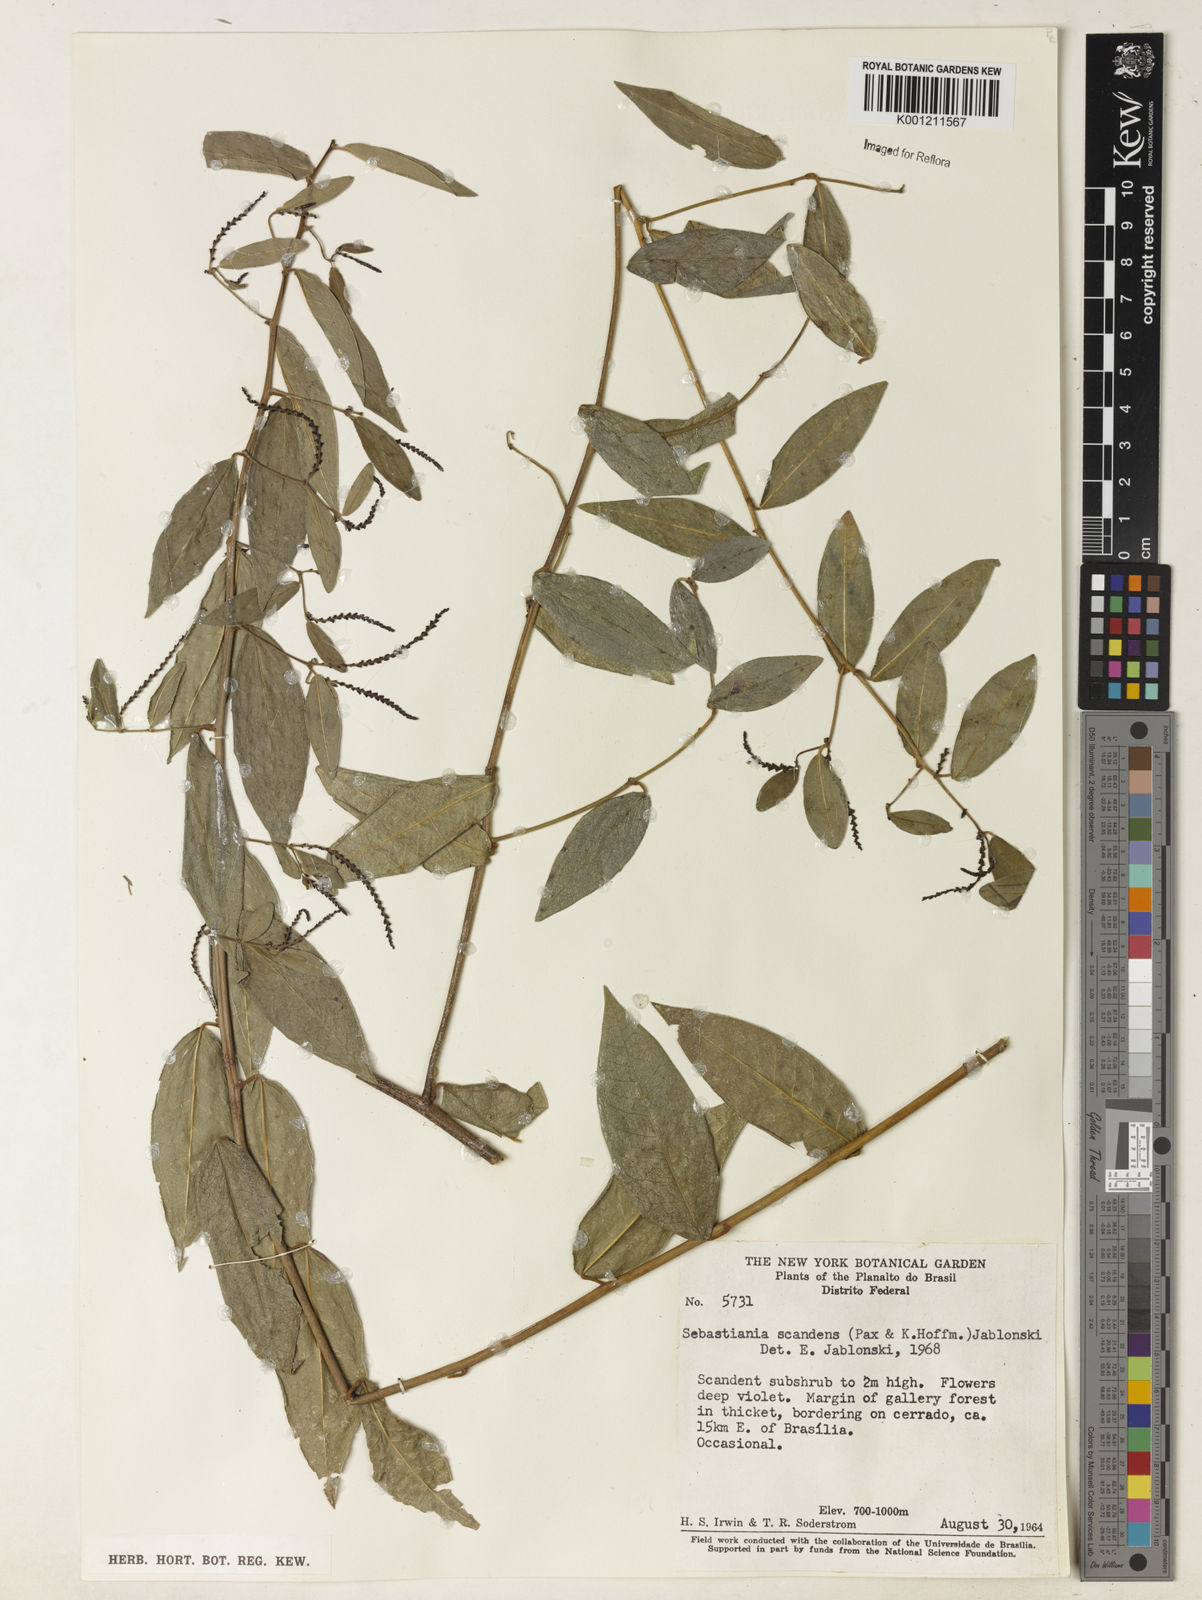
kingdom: Plantae
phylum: Tracheophyta
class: Magnoliopsida
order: Malpighiales
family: Euphorbiaceae
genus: Microstachys
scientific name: Microstachys hispida
